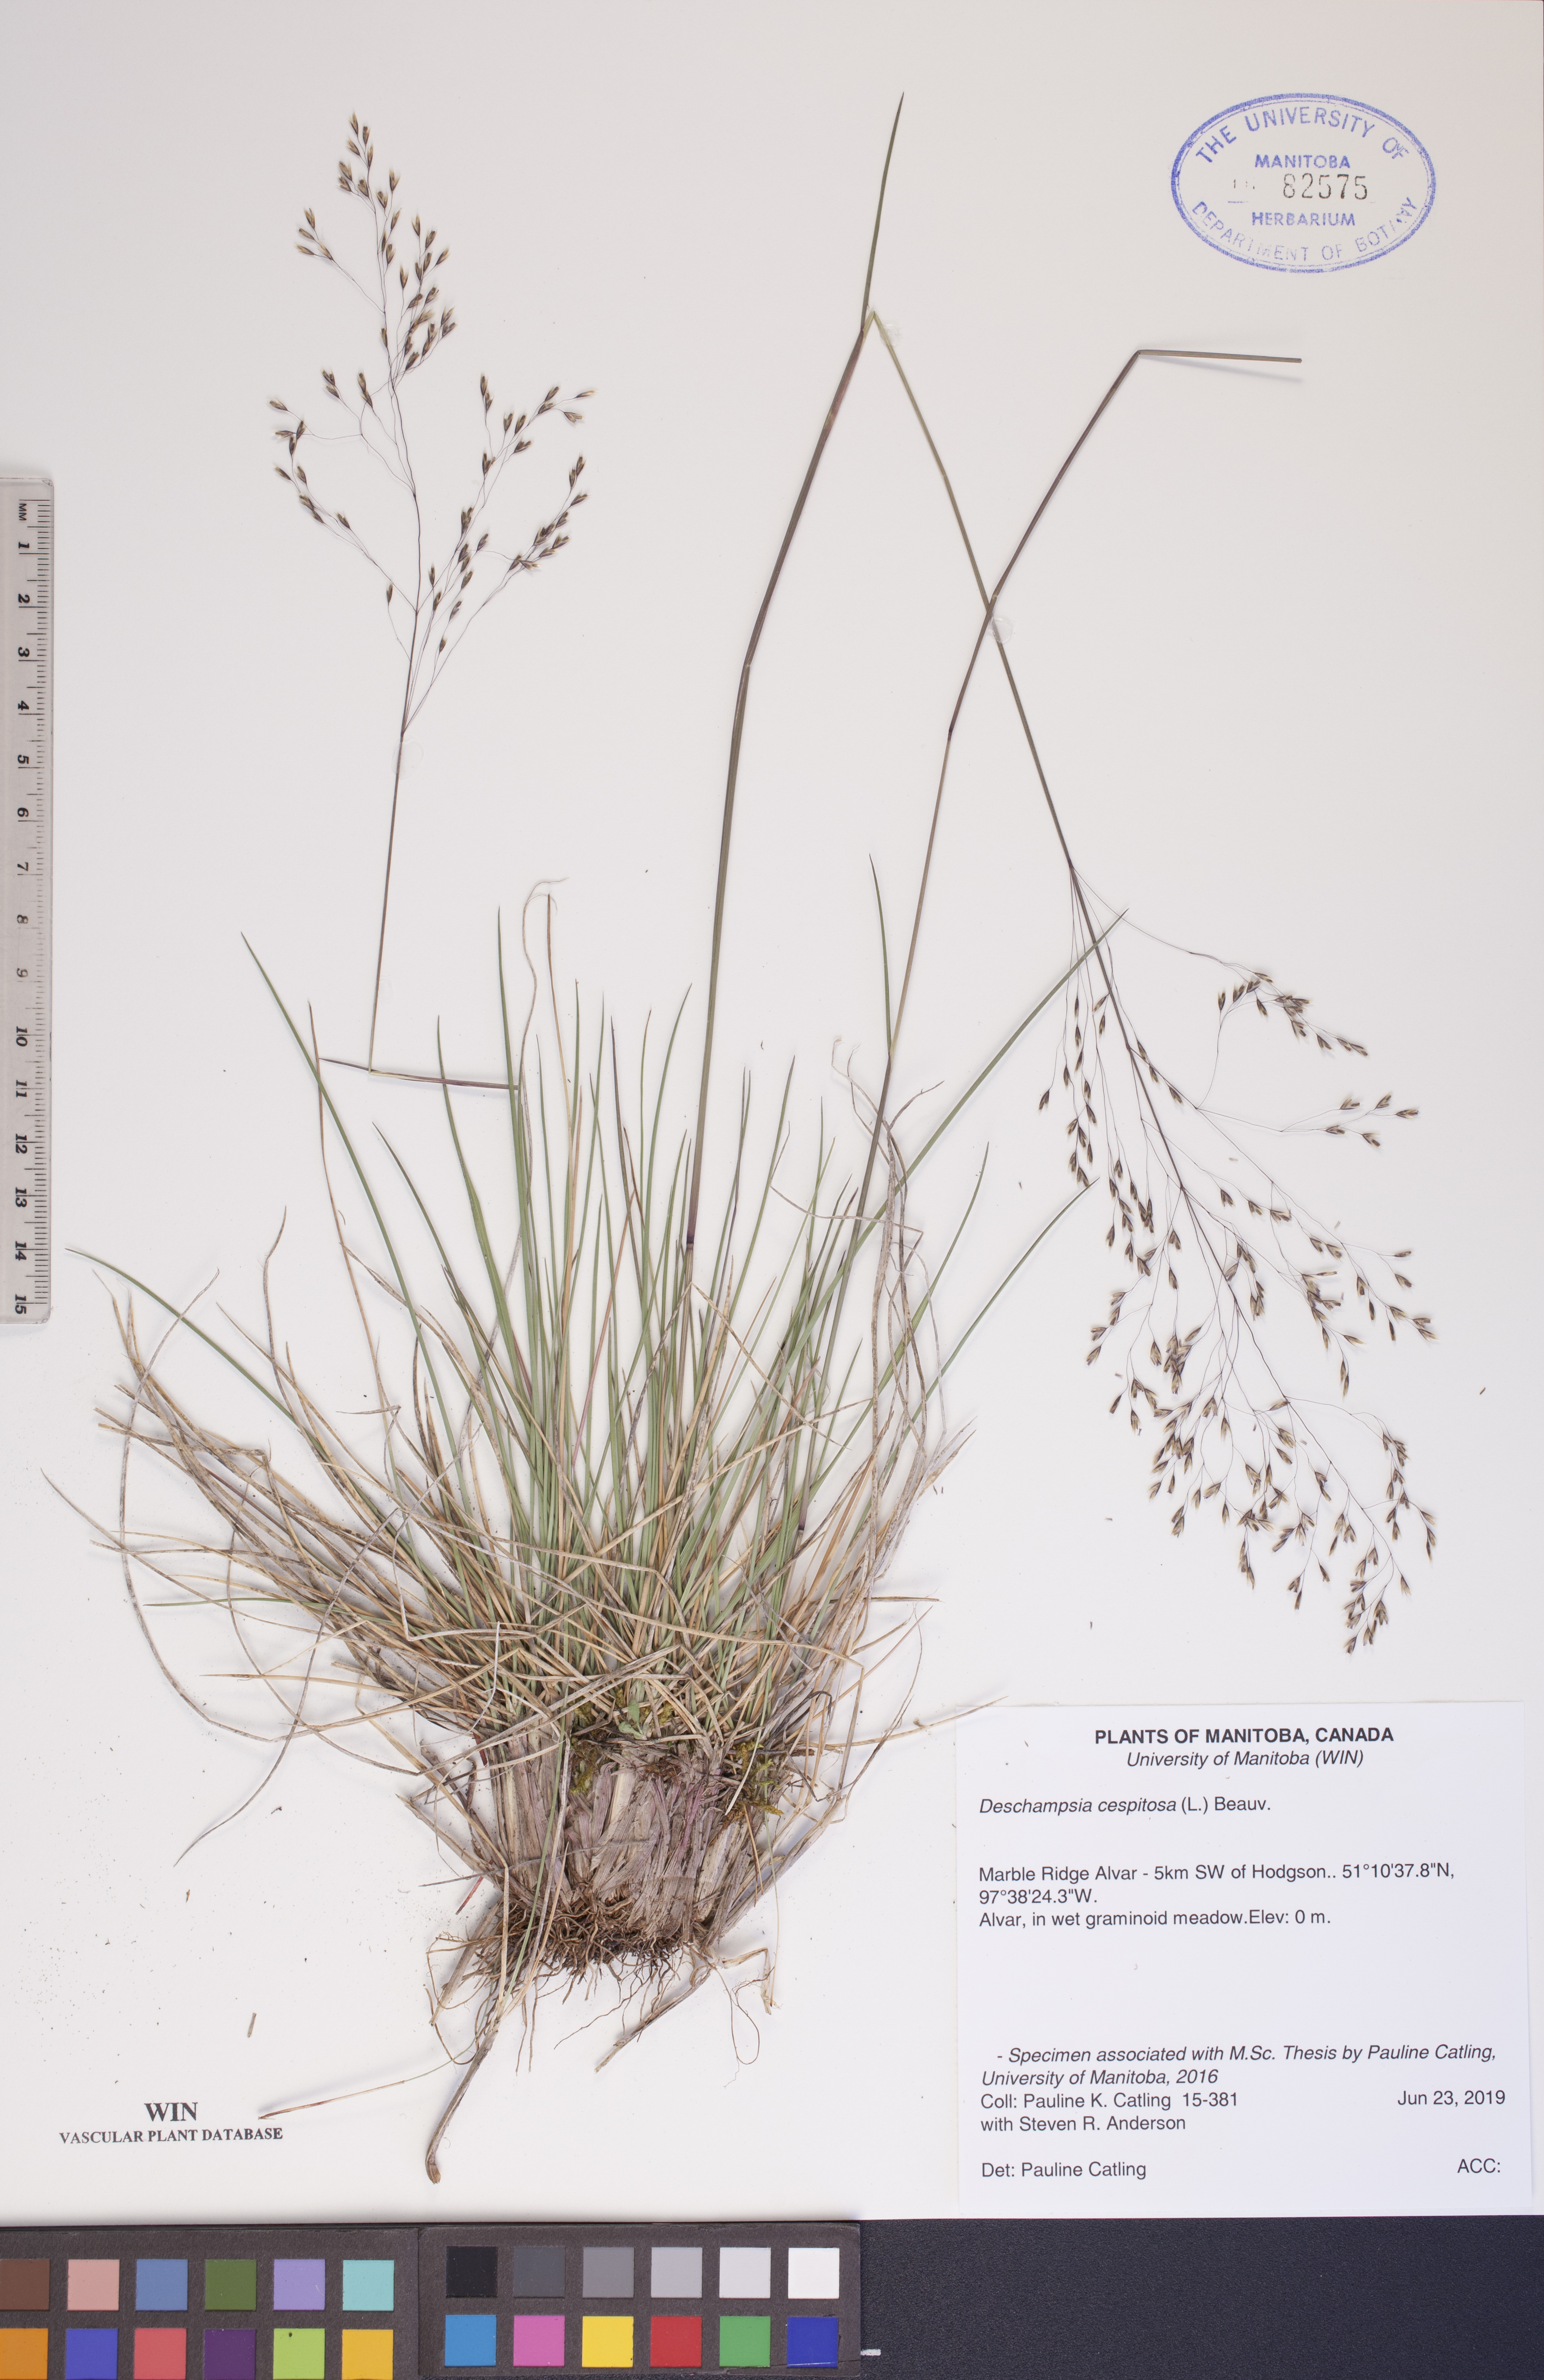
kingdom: Plantae
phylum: Tracheophyta
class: Liliopsida
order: Poales
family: Poaceae
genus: Deschampsia
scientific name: Deschampsia cespitosa
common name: Tufted hair-grass
